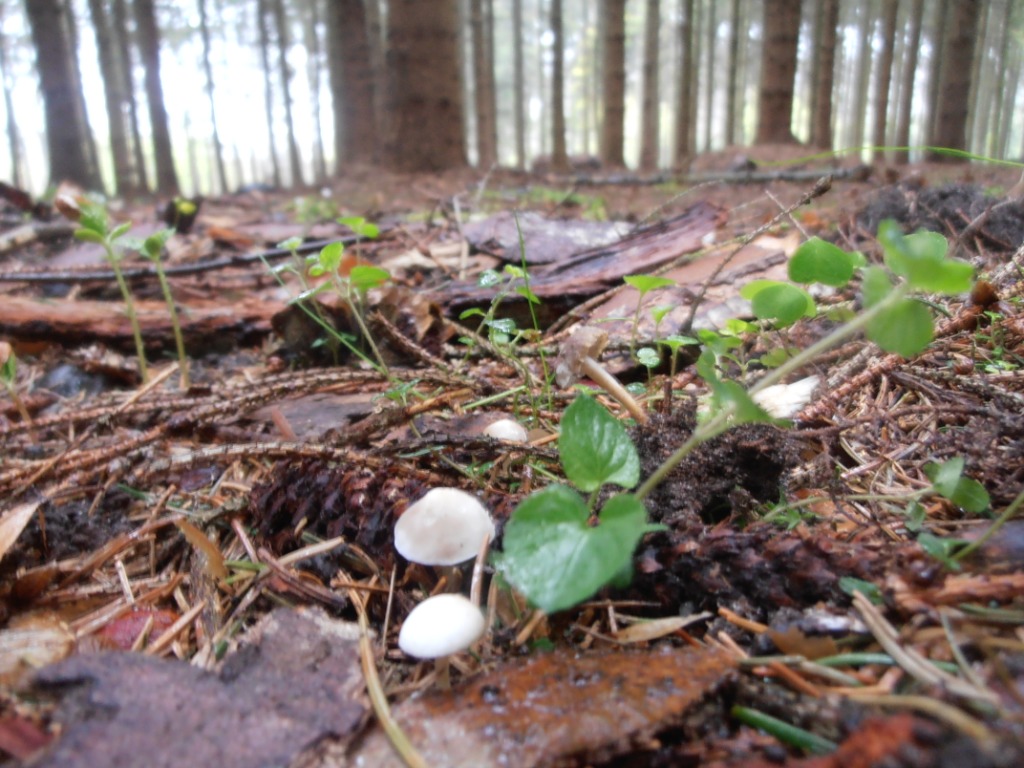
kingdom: Fungi
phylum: Basidiomycota
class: Agaricomycetes
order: Agaricales
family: Physalacriaceae
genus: Strobilurus
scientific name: Strobilurus esculentus
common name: gran-koglehat
